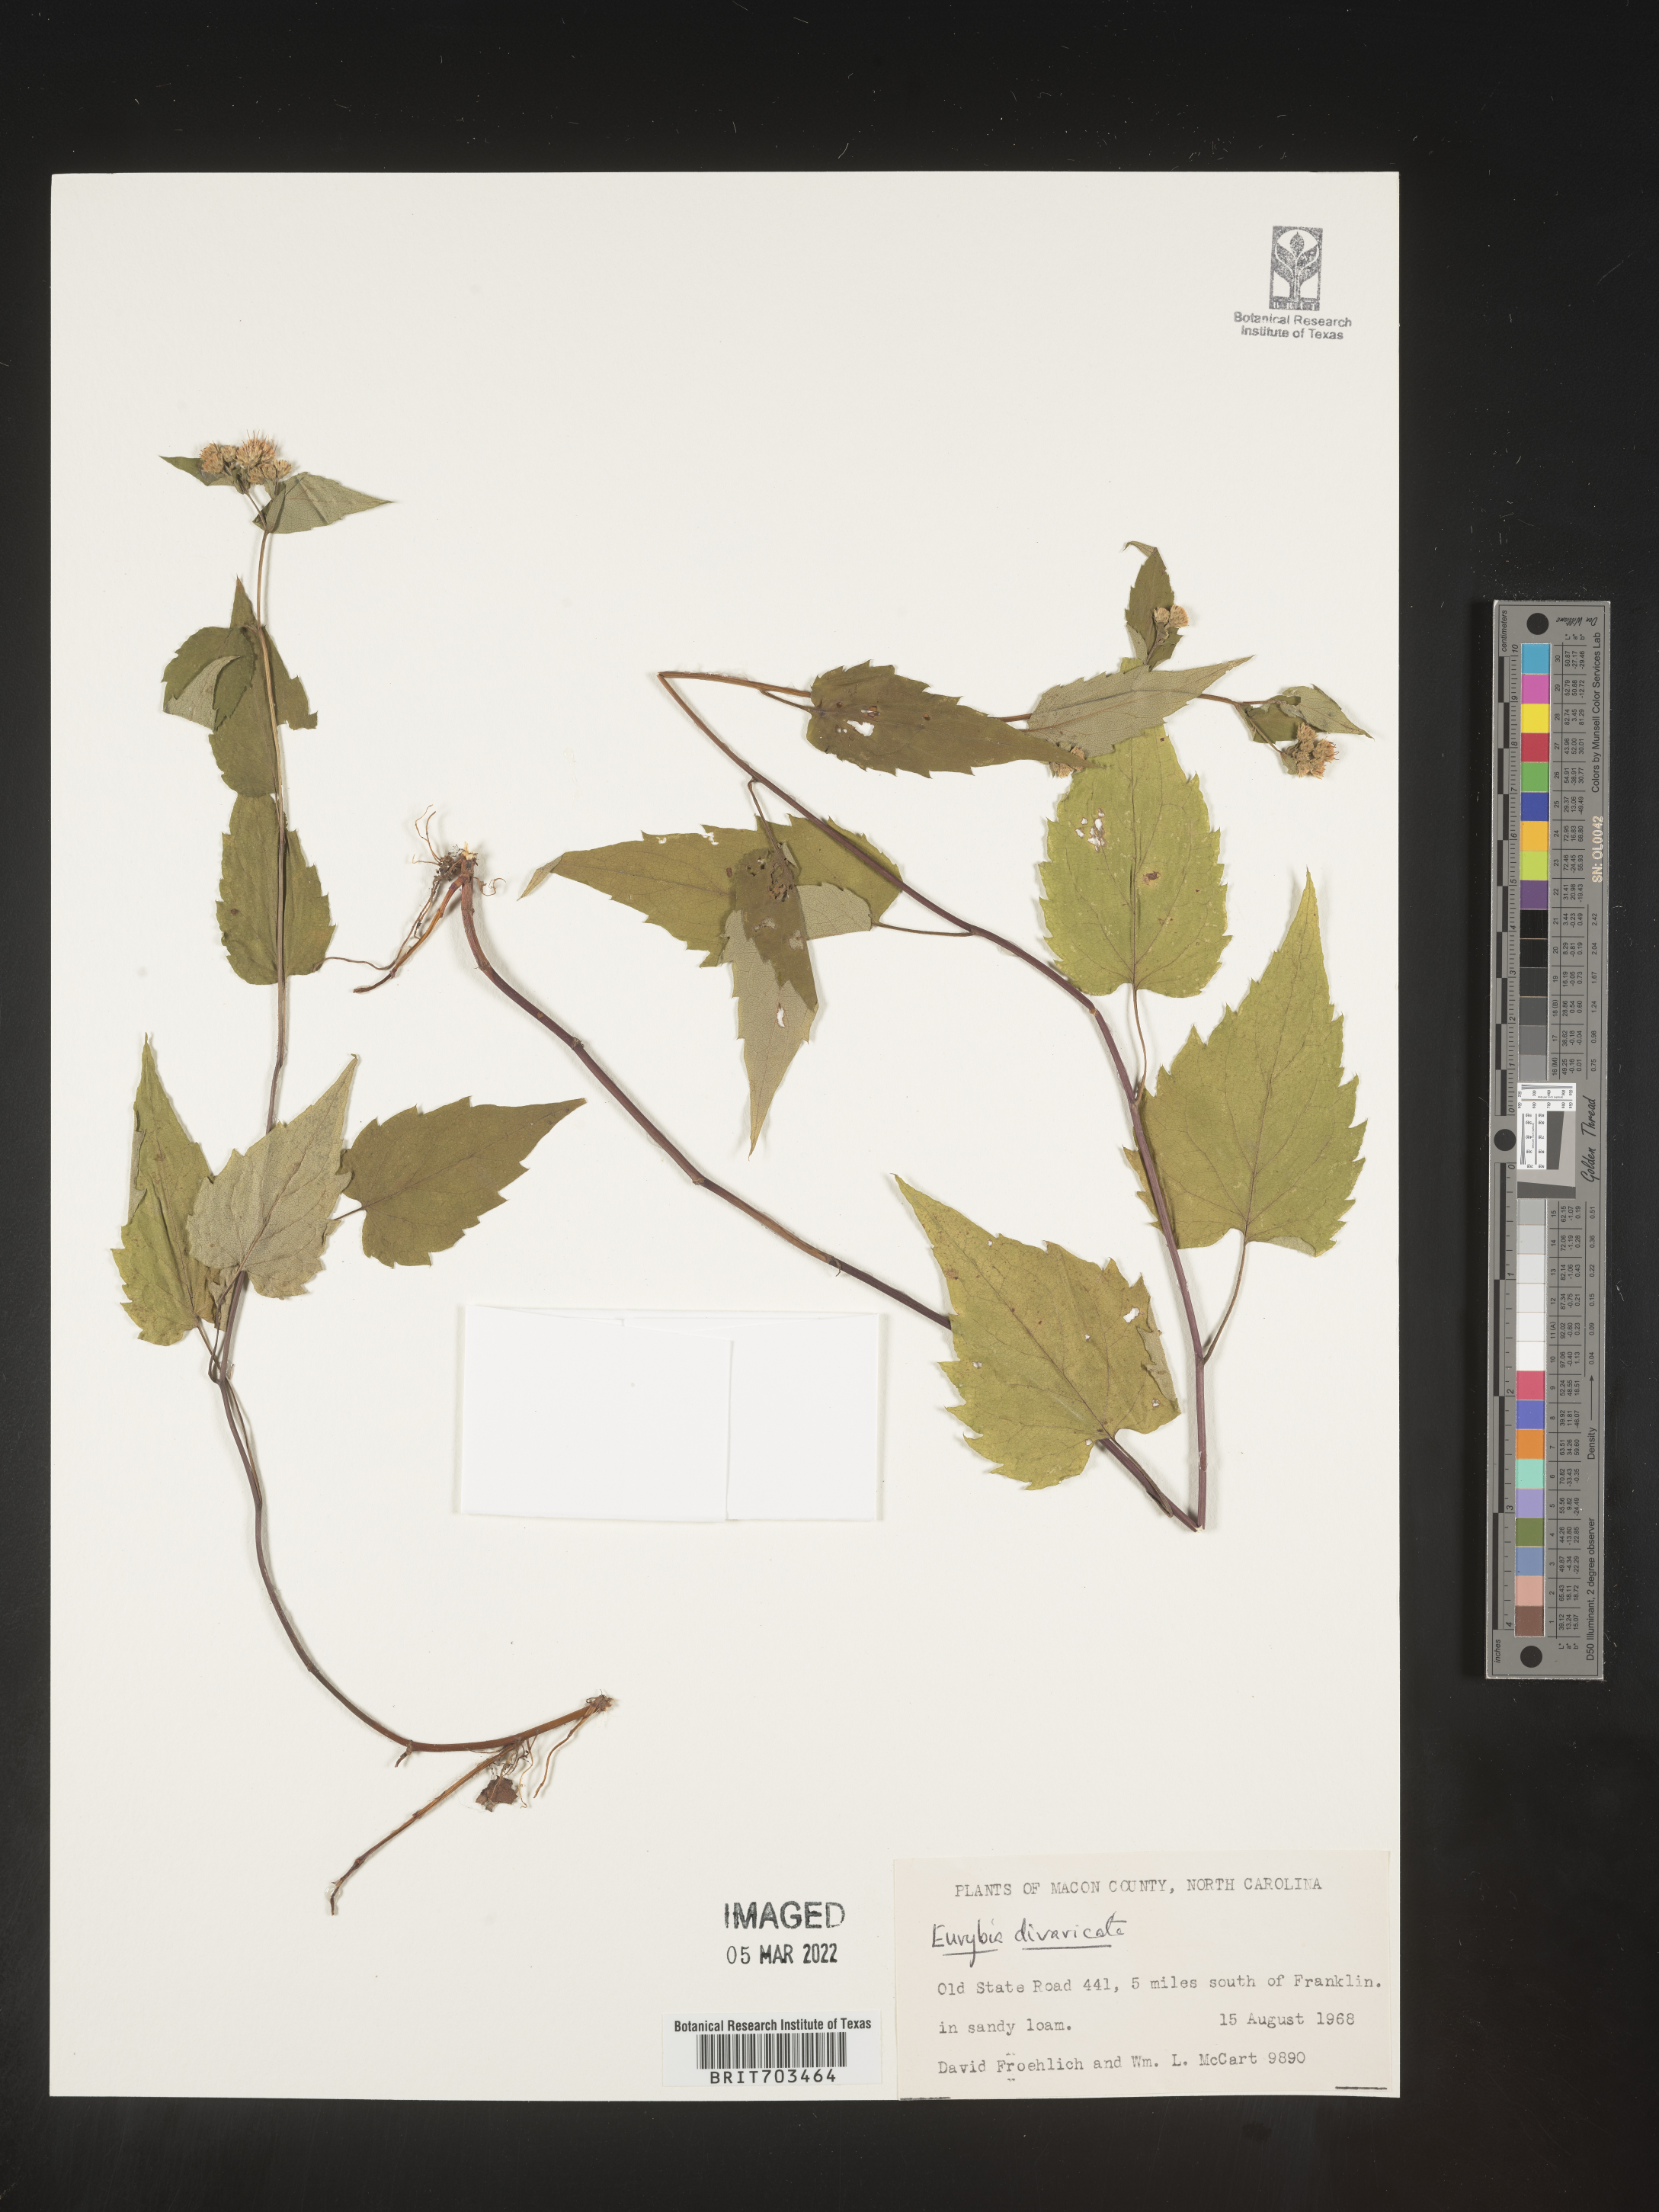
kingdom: Plantae
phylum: Tracheophyta
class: Magnoliopsida
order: Asterales
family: Asteraceae
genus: Eurybia
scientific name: Eurybia divaricata
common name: White wood aster
